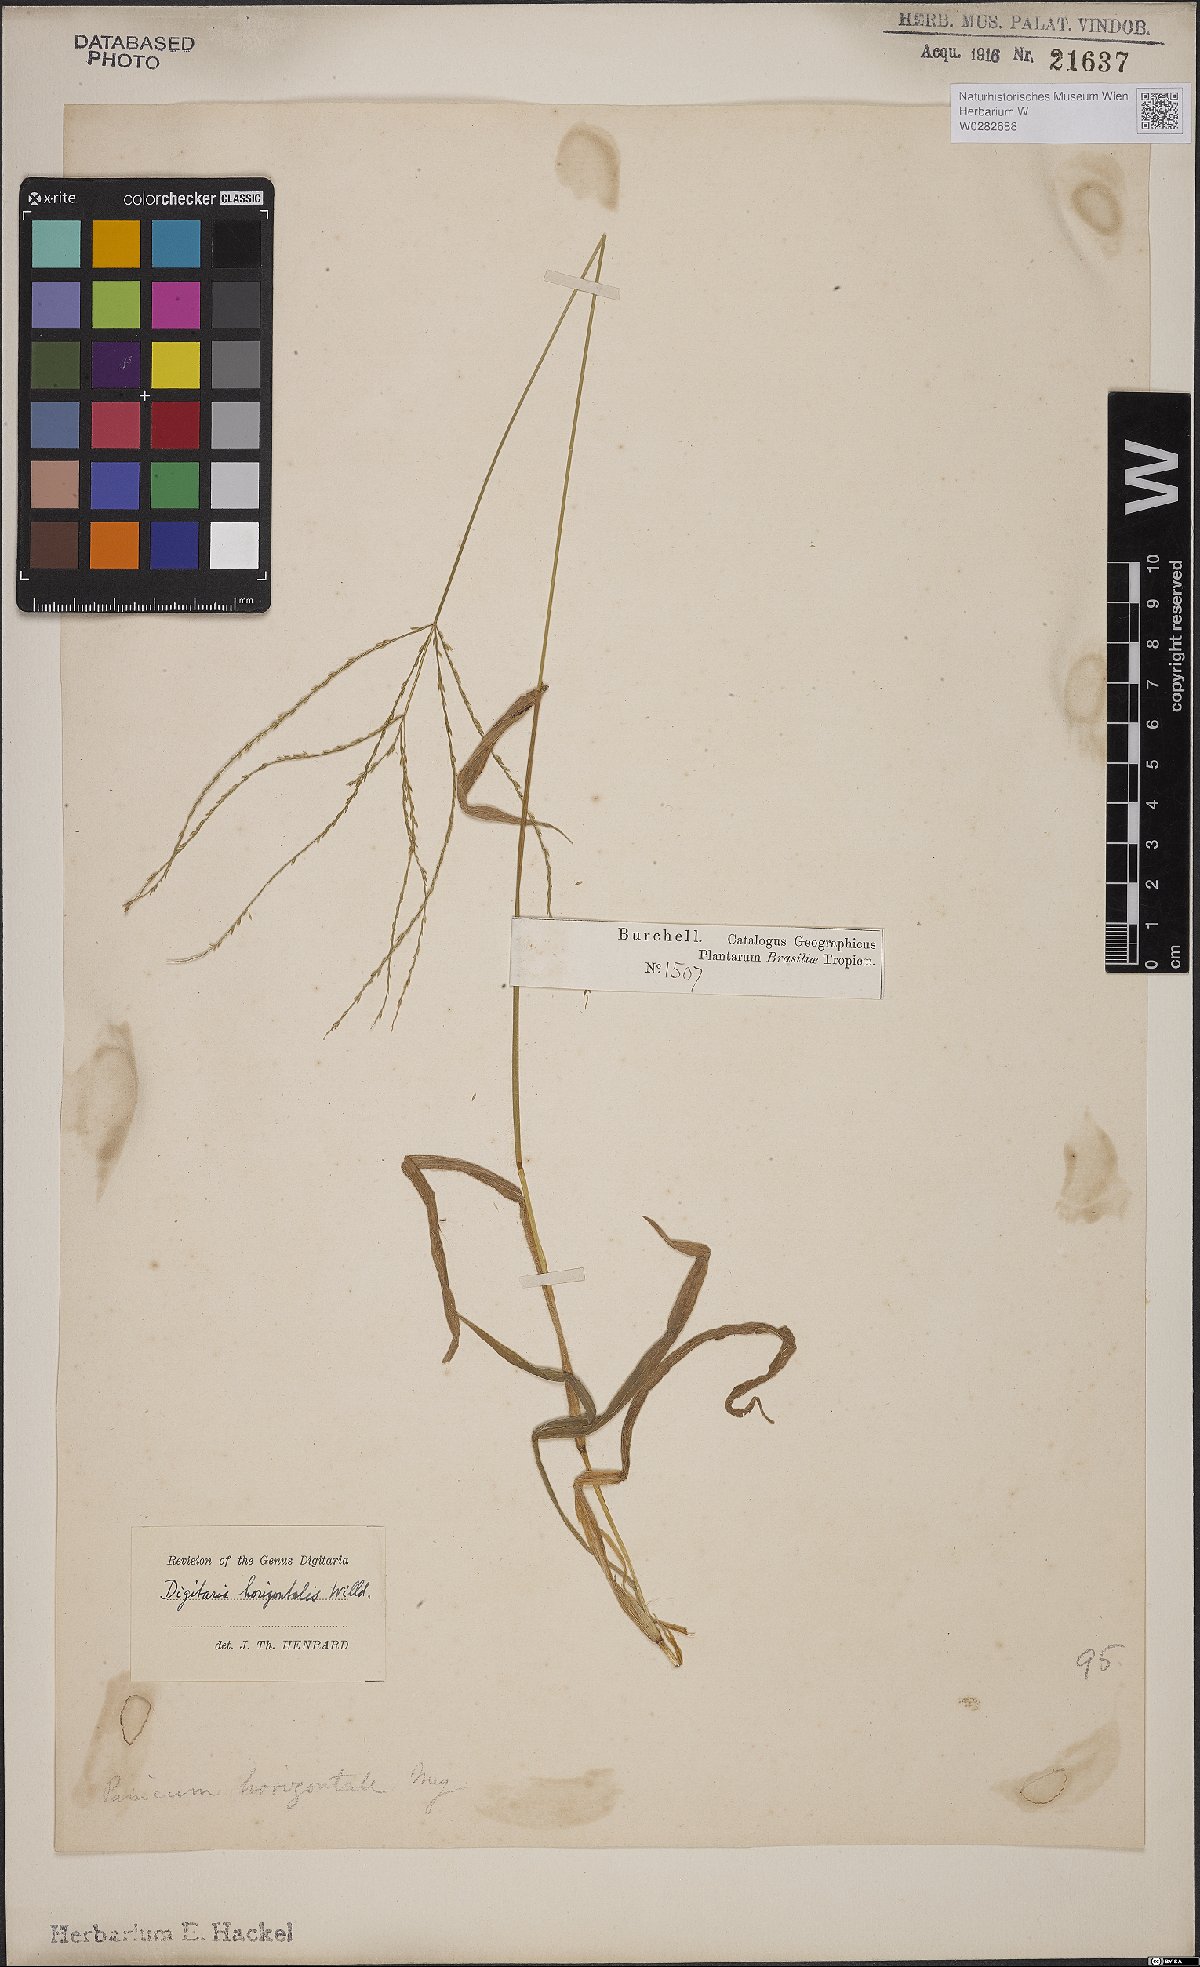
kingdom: Plantae
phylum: Tracheophyta
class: Liliopsida
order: Poales
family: Poaceae
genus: Digitaria
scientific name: Digitaria horizontalis
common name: Jamaican crabgrass
